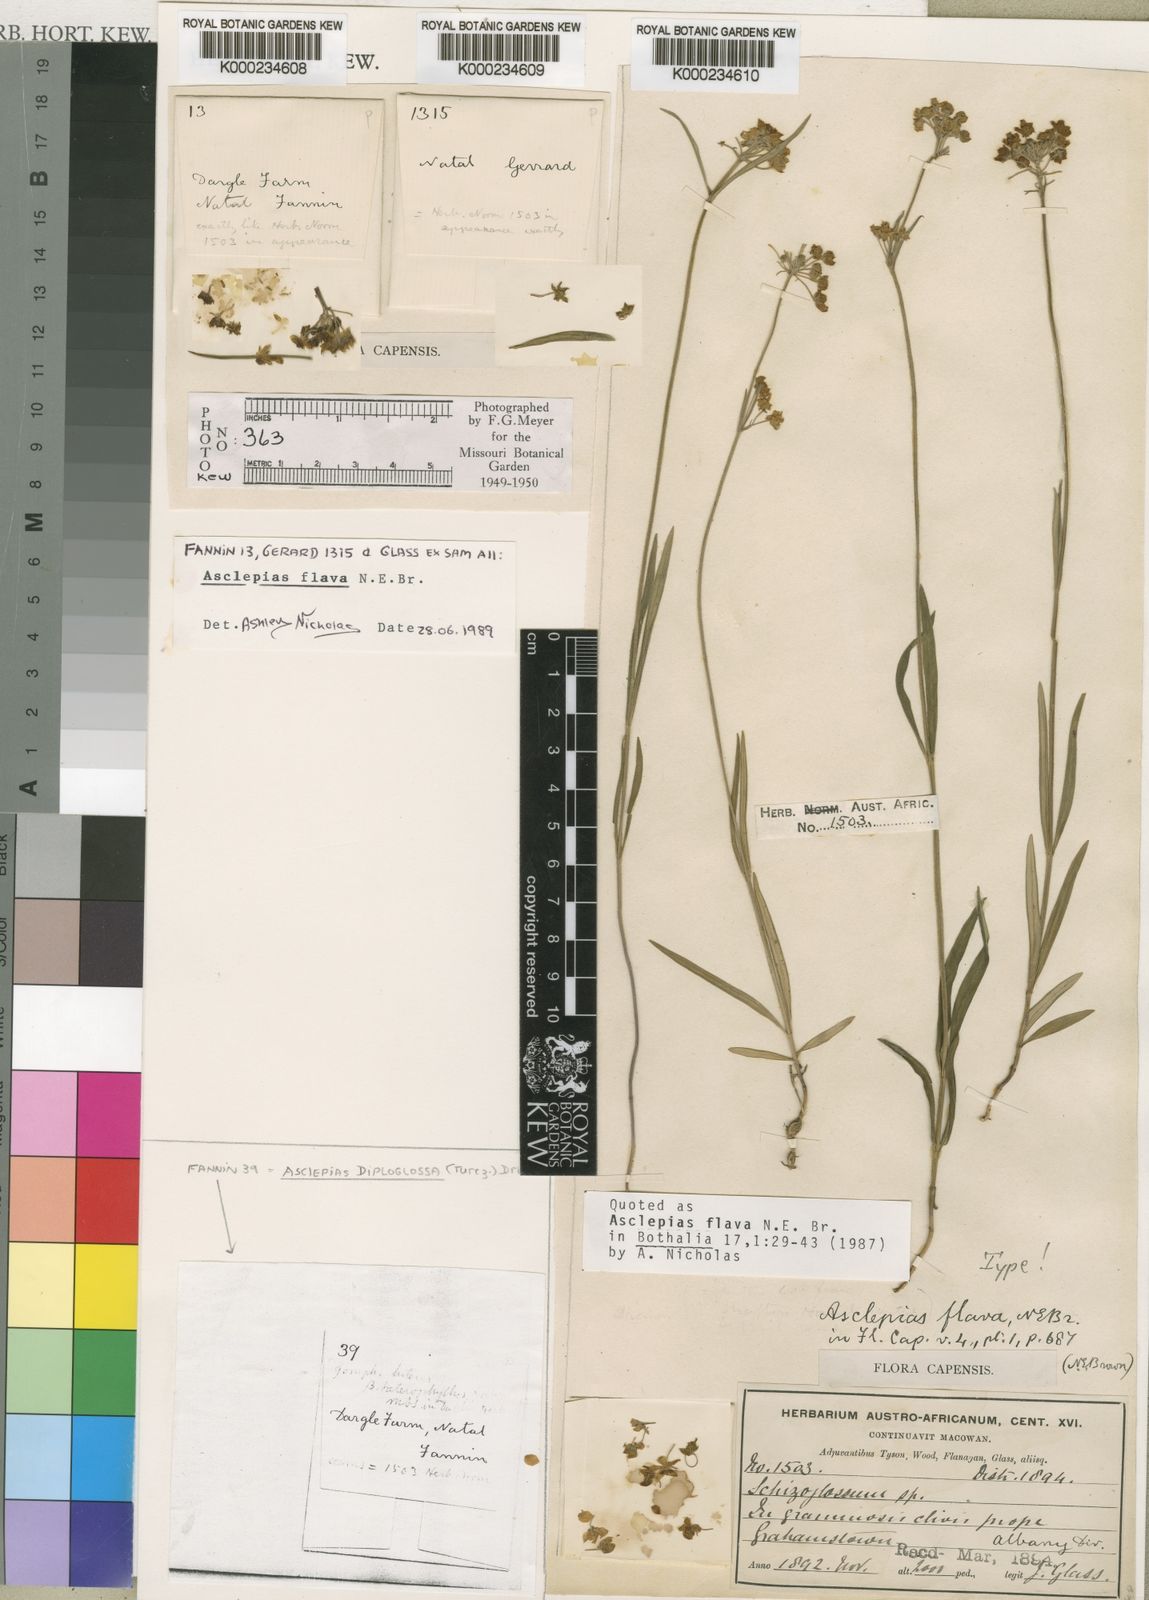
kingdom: Plantae
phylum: Tracheophyta
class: Magnoliopsida
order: Gentianales
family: Apocynaceae
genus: Aspidonepsis
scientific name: Aspidonepsis flava
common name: Small suncup
